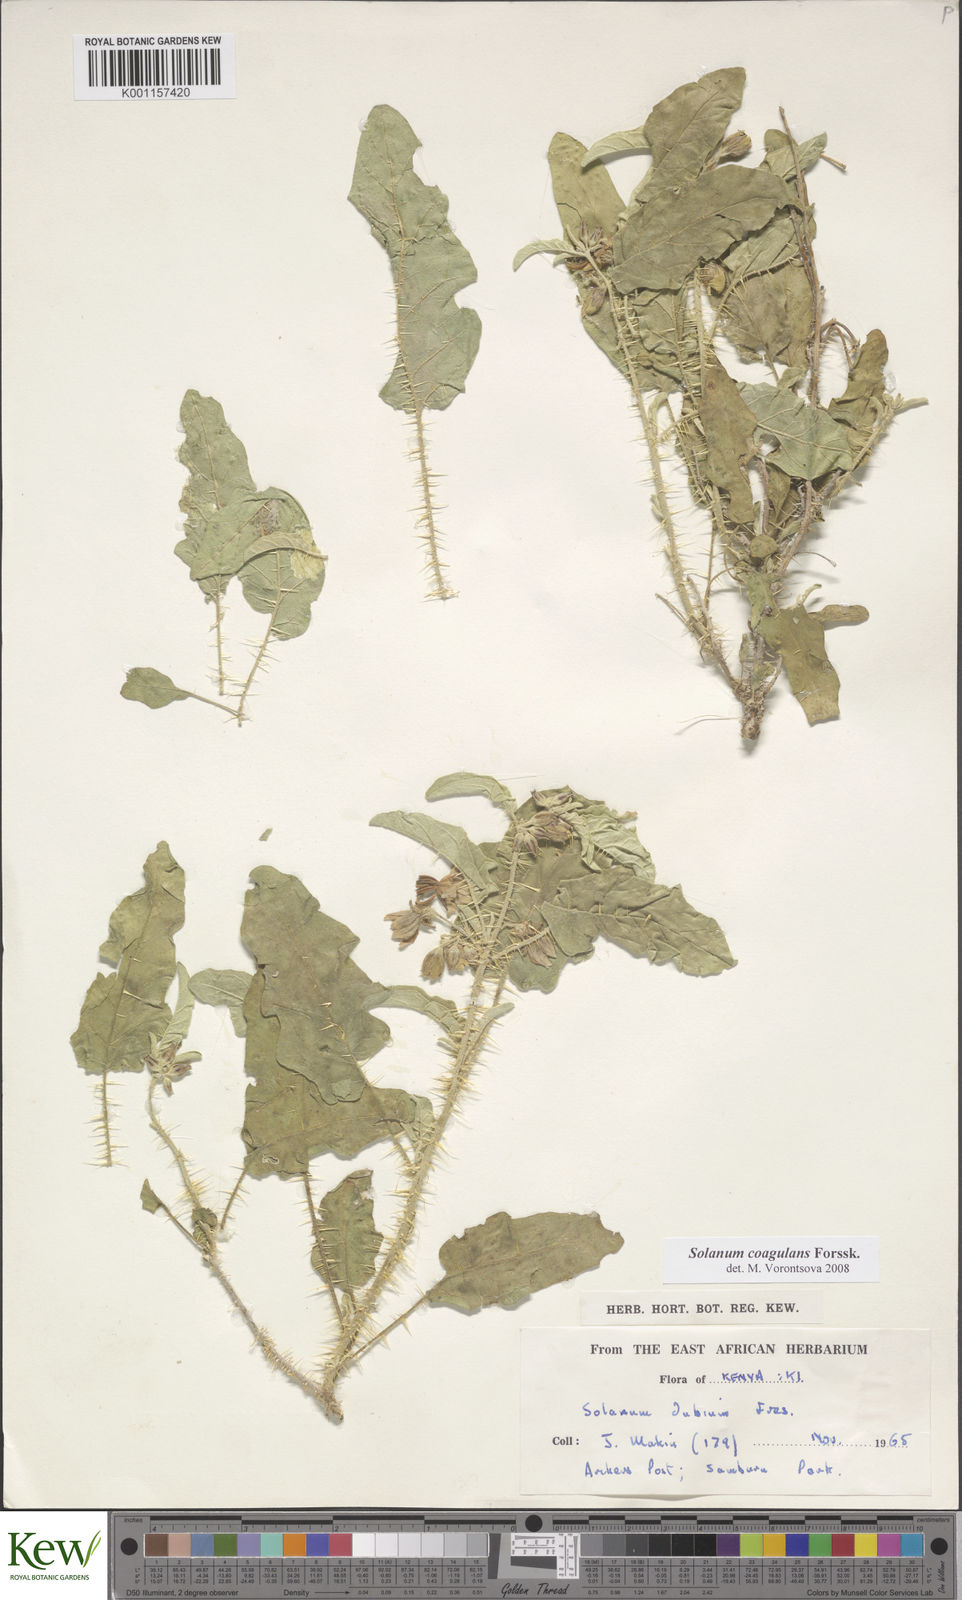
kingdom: Plantae
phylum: Tracheophyta
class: Magnoliopsida
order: Solanales
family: Solanaceae
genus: Solanum
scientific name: Solanum coagulans
